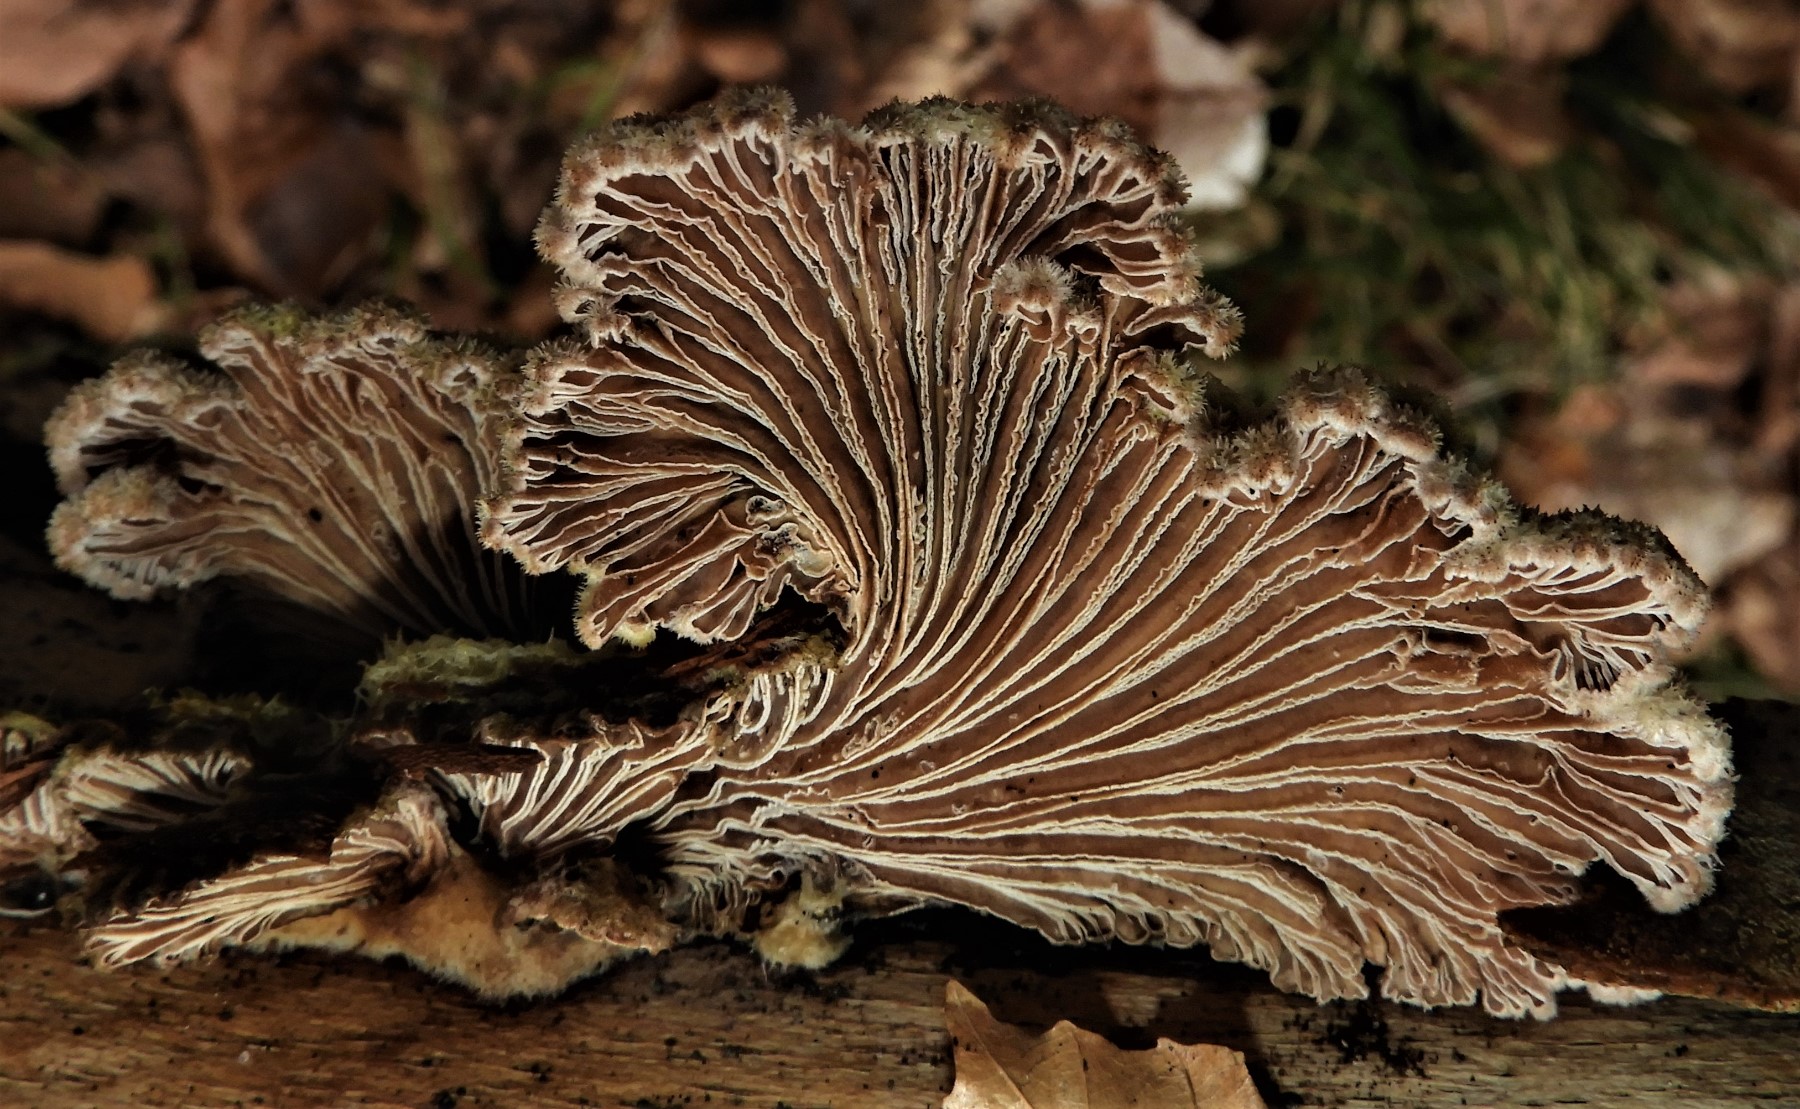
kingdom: Fungi
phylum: Basidiomycota
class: Agaricomycetes
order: Agaricales
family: Schizophyllaceae
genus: Schizophyllum
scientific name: Schizophyllum commune
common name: kløvblad
